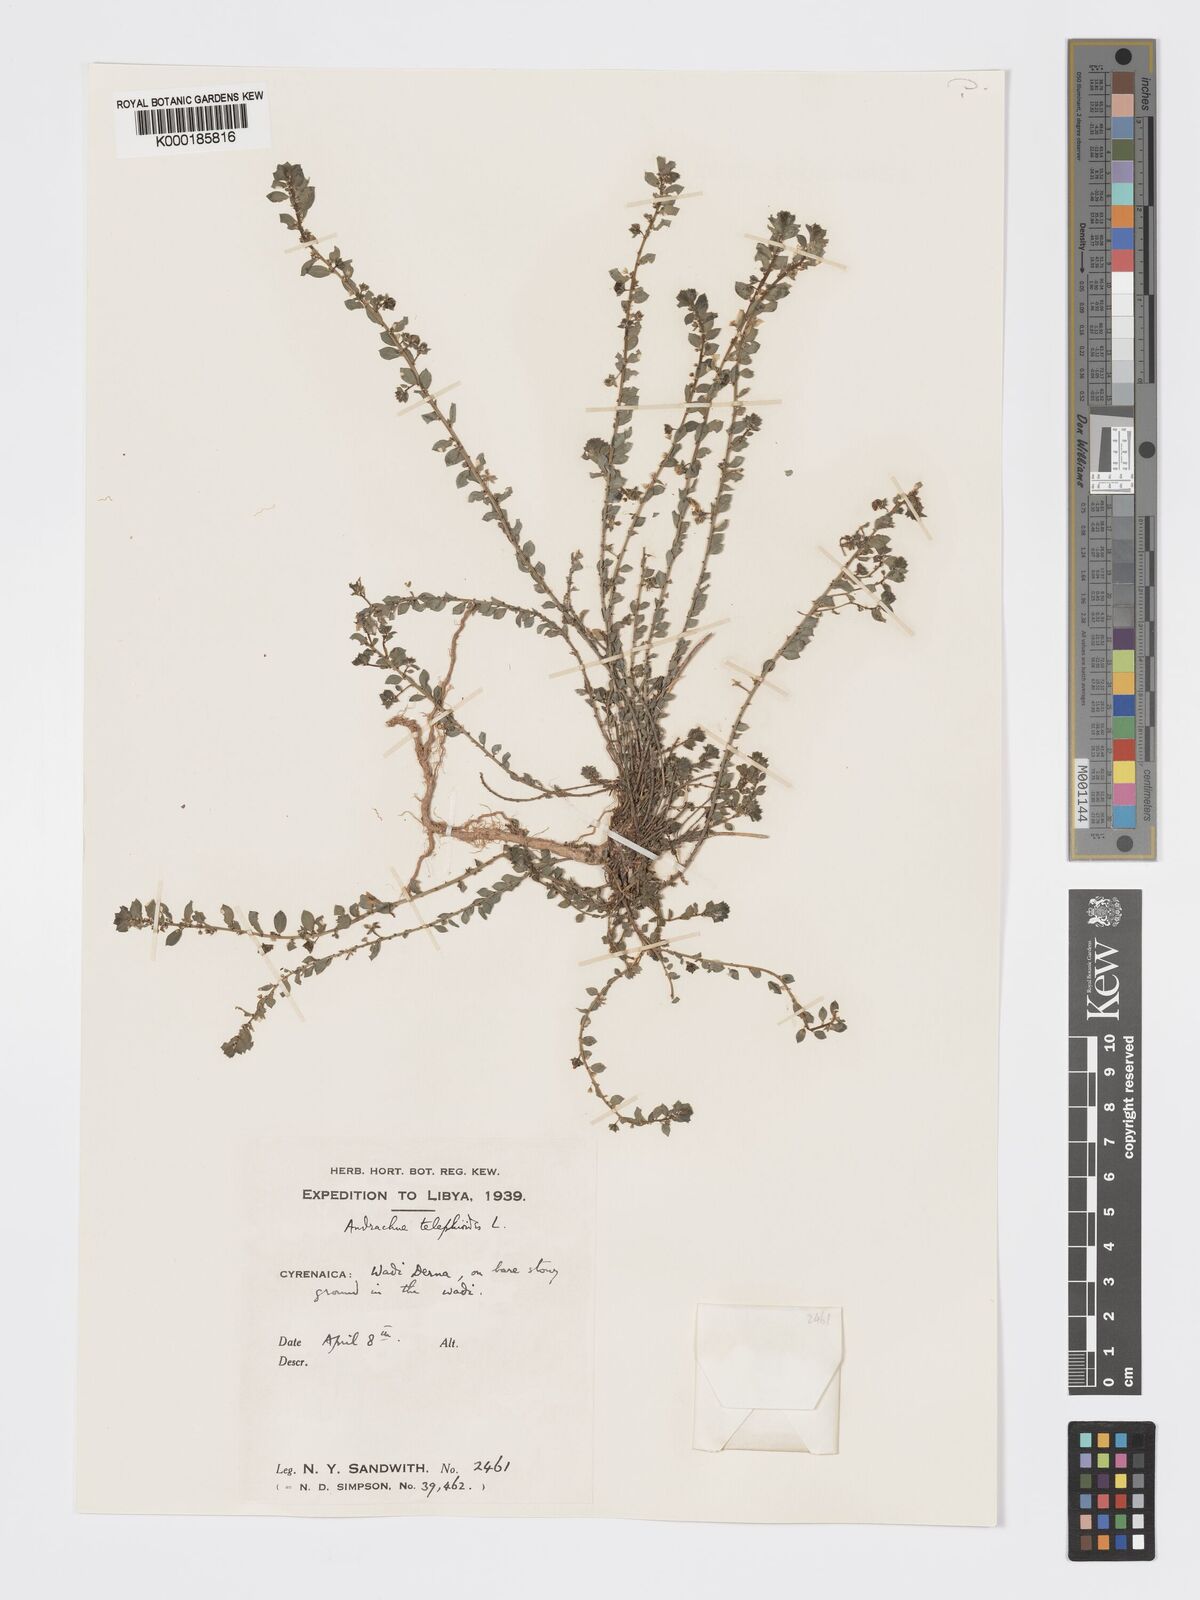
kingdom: Plantae
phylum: Tracheophyta
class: Magnoliopsida
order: Malpighiales
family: Phyllanthaceae
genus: Andrachne
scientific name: Andrachne telephioides
